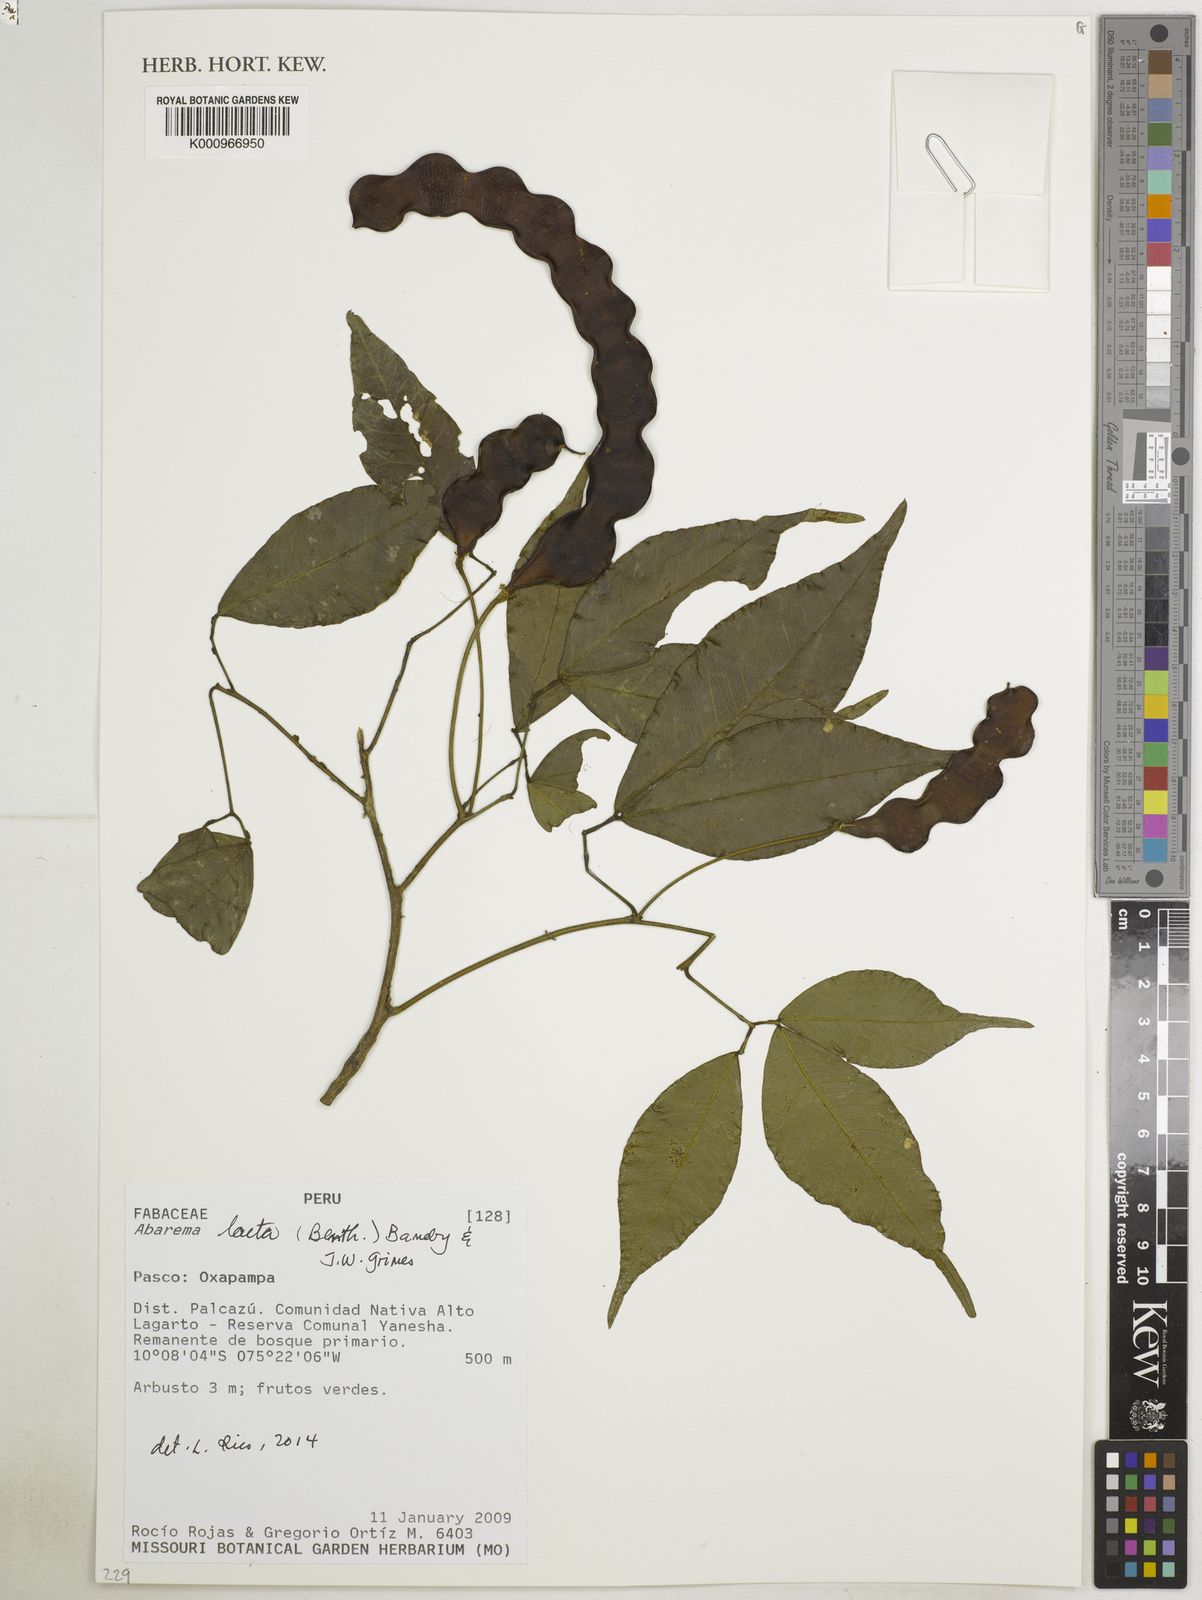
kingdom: Plantae
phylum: Tracheophyta
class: Magnoliopsida
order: Fabales
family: Fabaceae
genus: Jupunba
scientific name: Jupunba laeta
